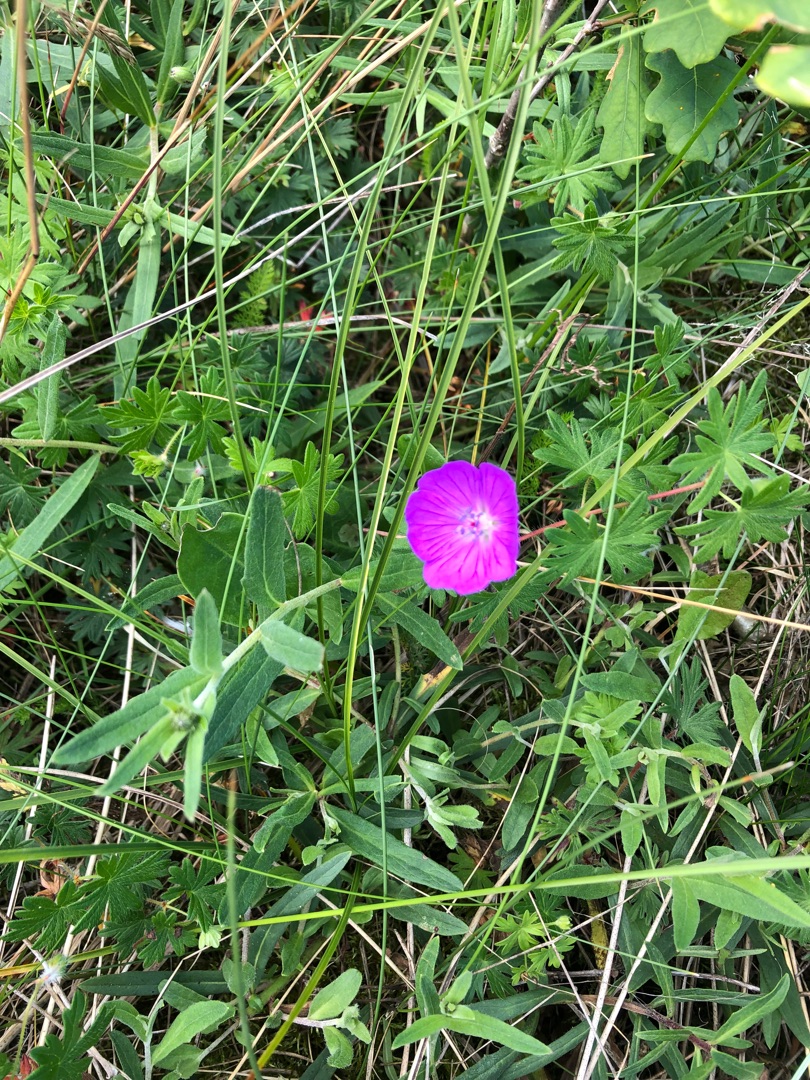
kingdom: Plantae
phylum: Tracheophyta
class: Magnoliopsida
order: Geraniales
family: Geraniaceae
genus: Geranium
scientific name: Geranium sanguineum
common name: Blodrød storkenæb
